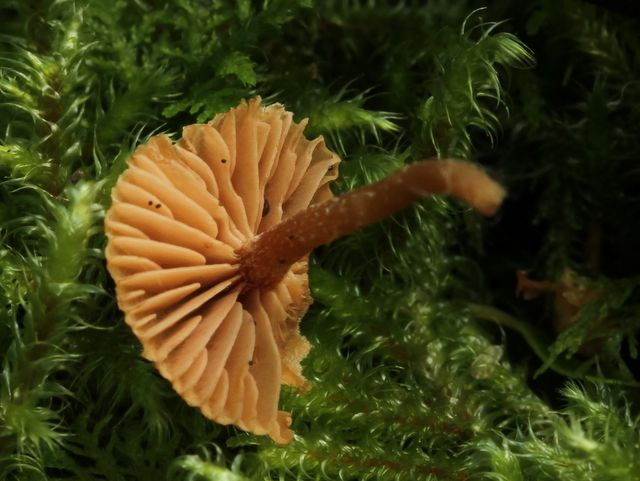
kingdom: Fungi
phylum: Basidiomycota
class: Agaricomycetes
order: Agaricales
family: Tubariaceae
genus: Tubaria
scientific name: Tubaria conspersa
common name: bleg fnughat
